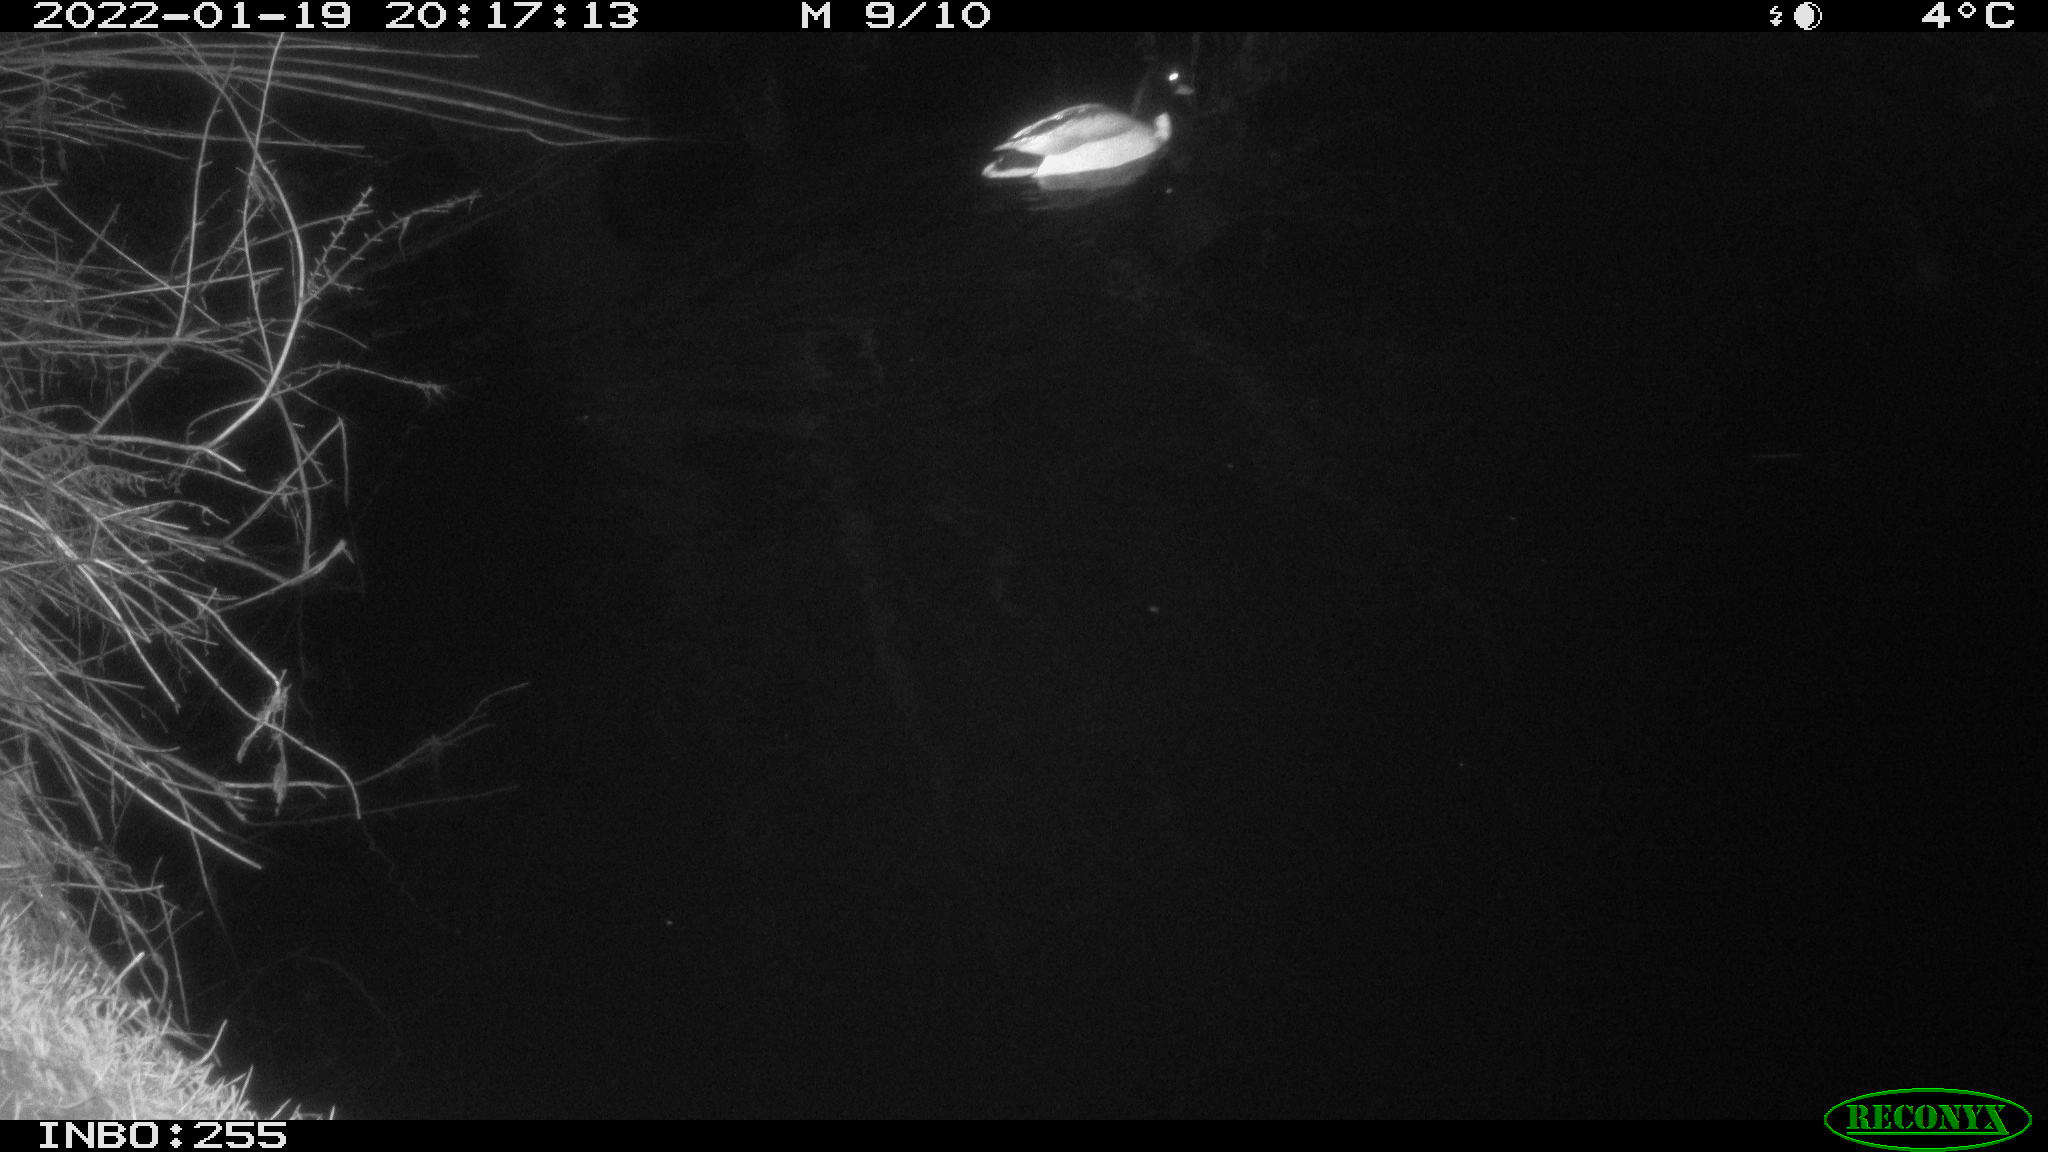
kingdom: Animalia
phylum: Chordata
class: Aves
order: Anseriformes
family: Anatidae
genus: Anas
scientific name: Anas
